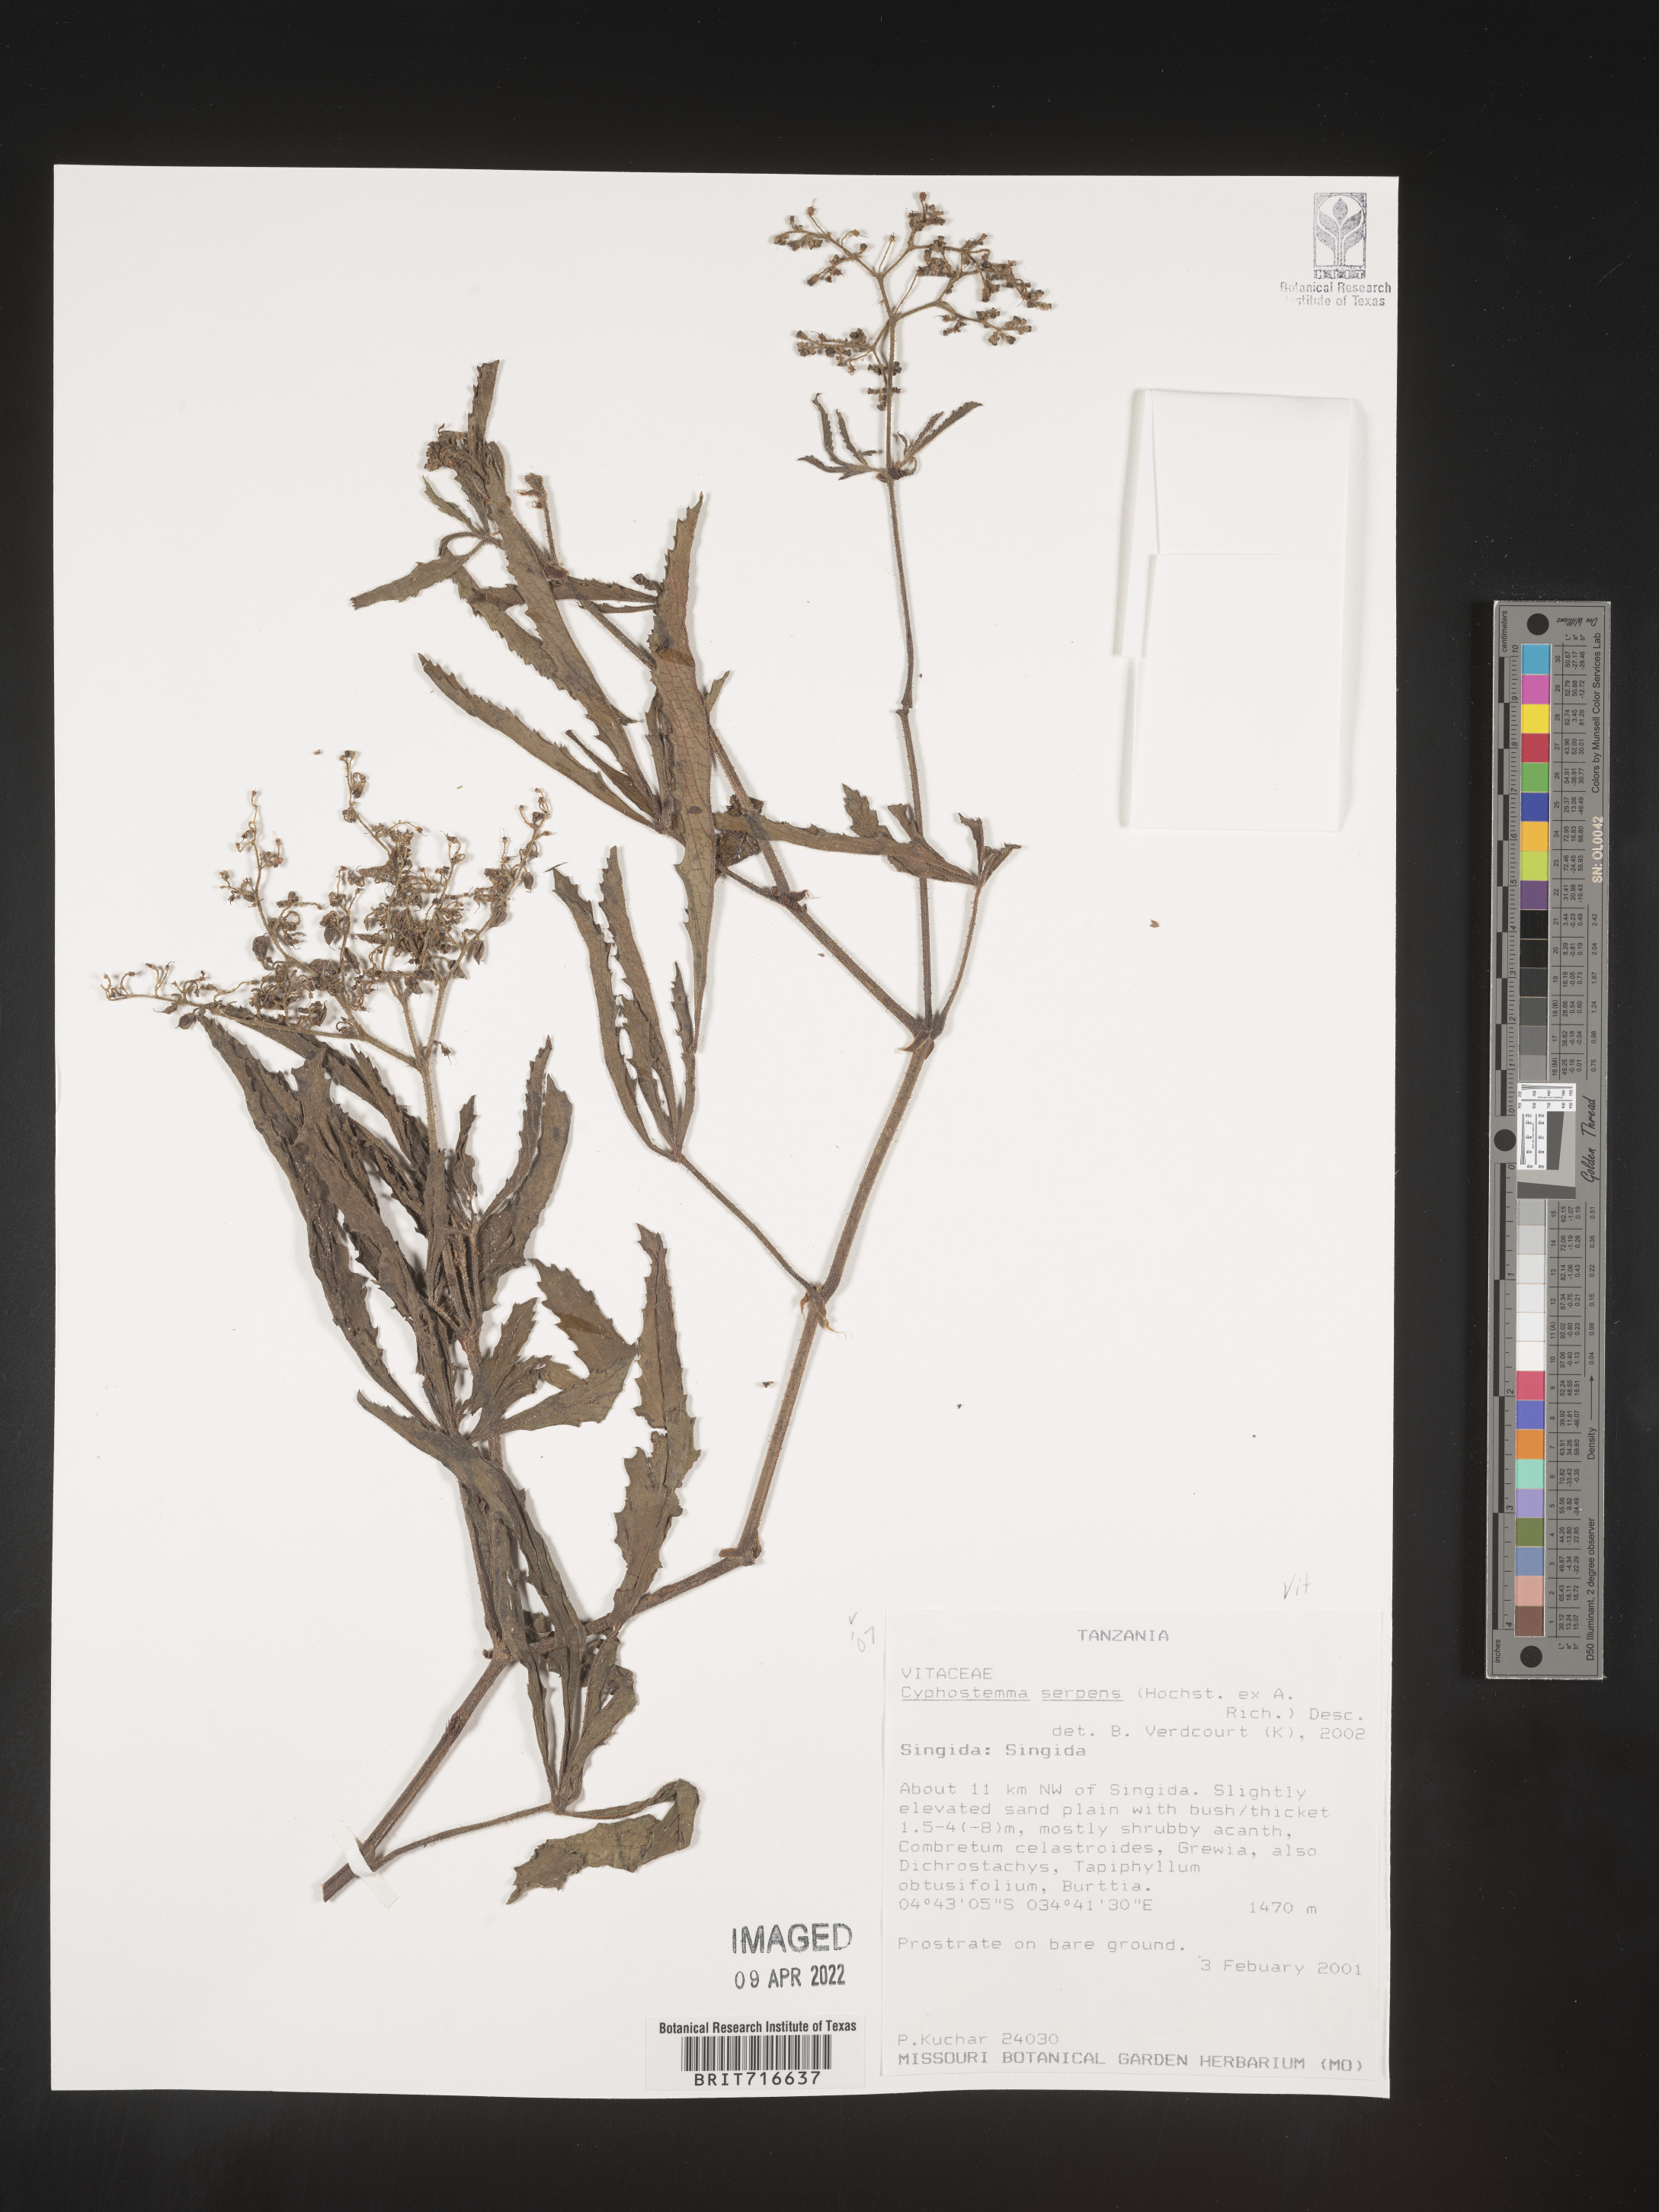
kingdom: Plantae
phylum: Tracheophyta
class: Magnoliopsida
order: Vitales
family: Vitaceae
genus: Cyphostemma
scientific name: Cyphostemma
